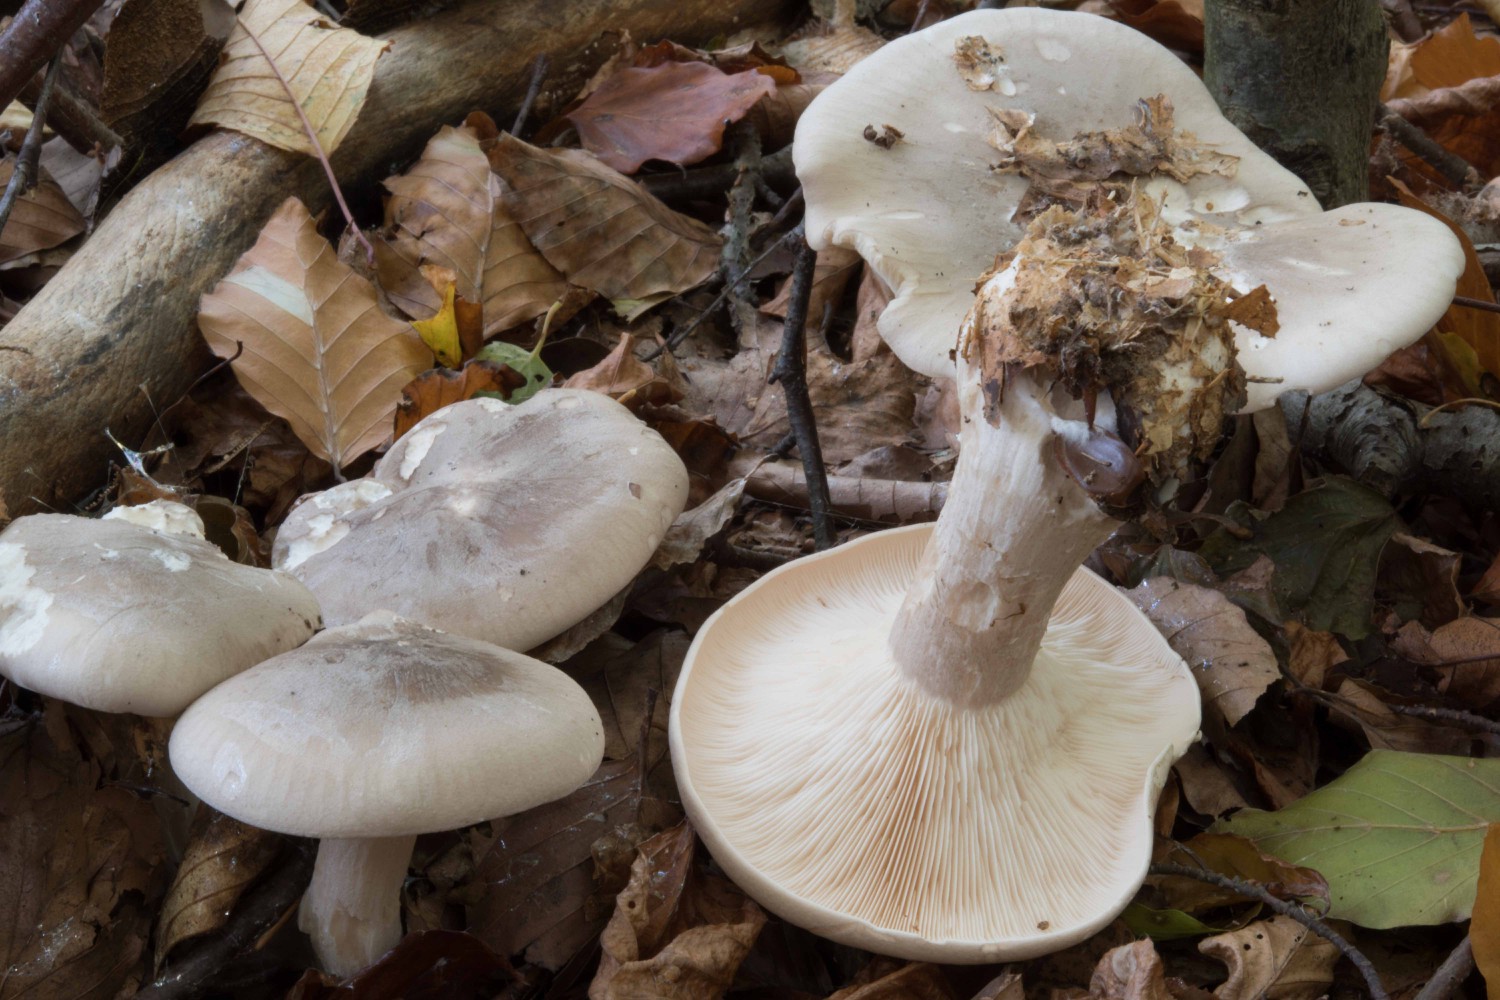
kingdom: Fungi
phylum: Basidiomycota
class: Agaricomycetes
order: Agaricales
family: Tricholomataceae
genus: Clitocybe
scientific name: Clitocybe nebularis
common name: tåge-tragthat
